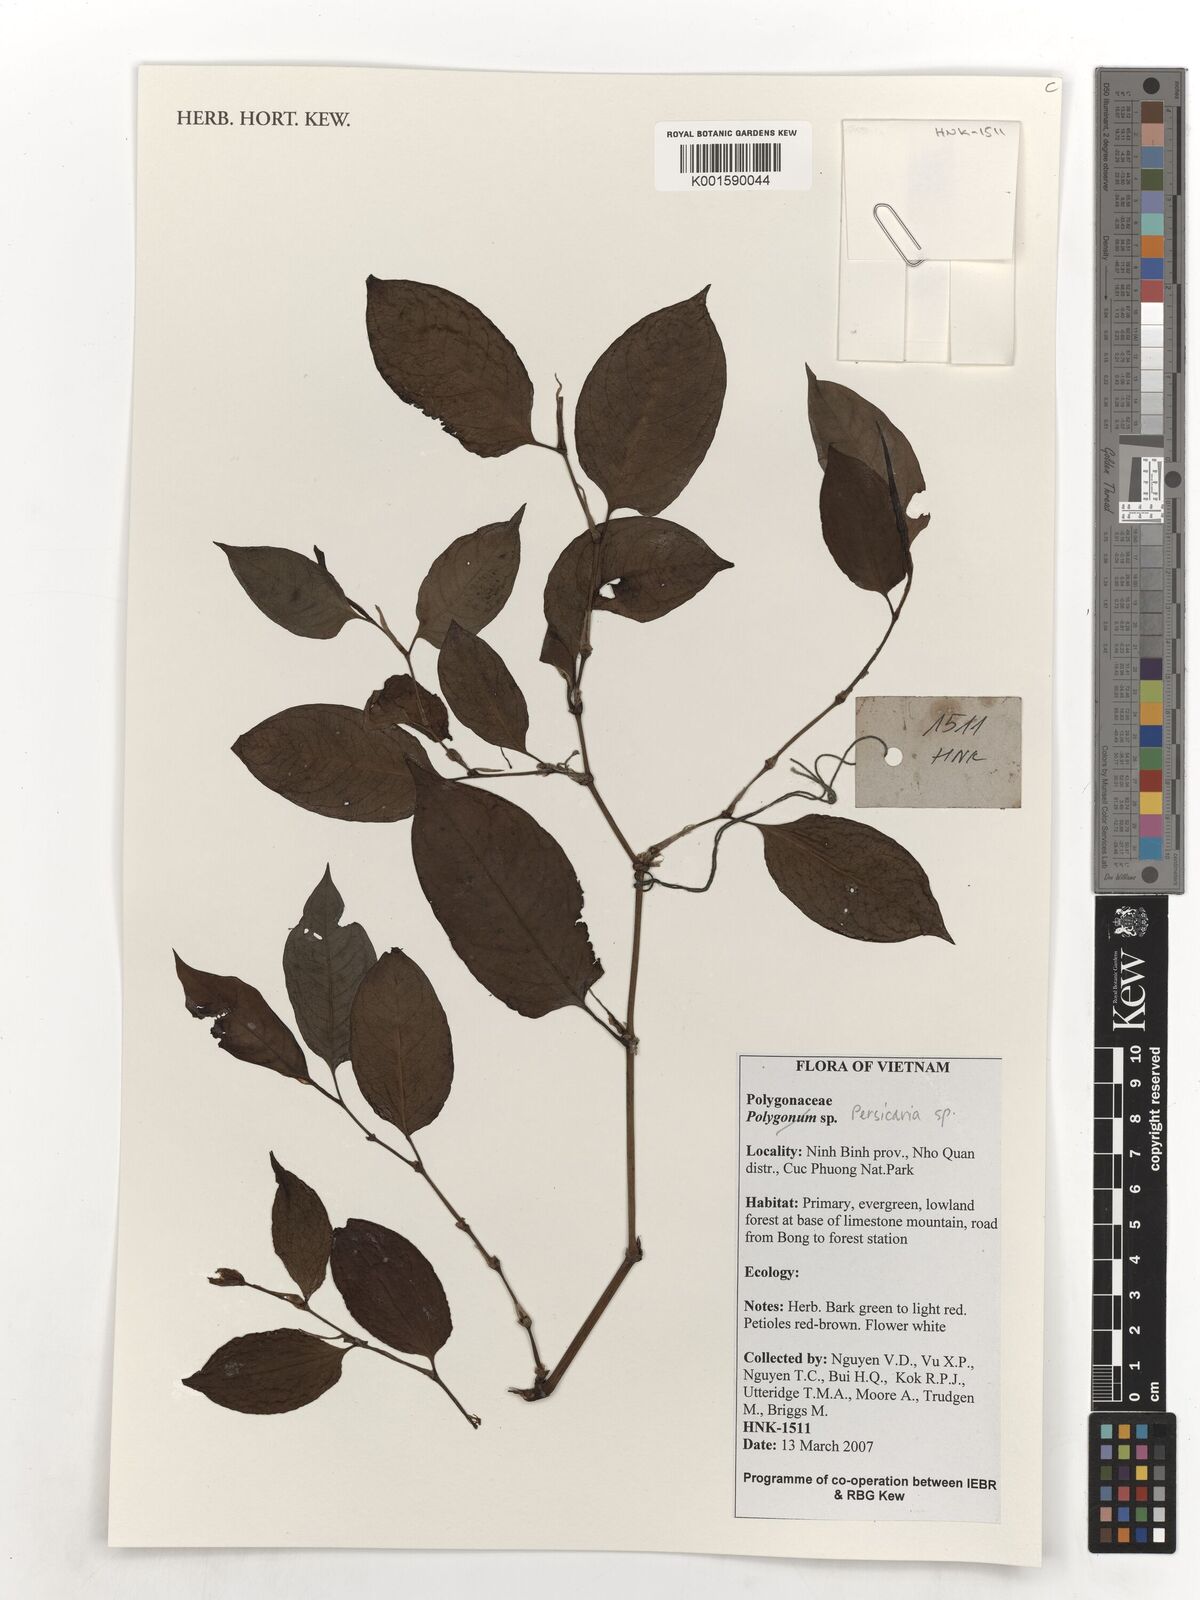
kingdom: Plantae
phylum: Tracheophyta
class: Magnoliopsida
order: Caryophyllales
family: Polygonaceae
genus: Persicaria
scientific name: Persicaria
